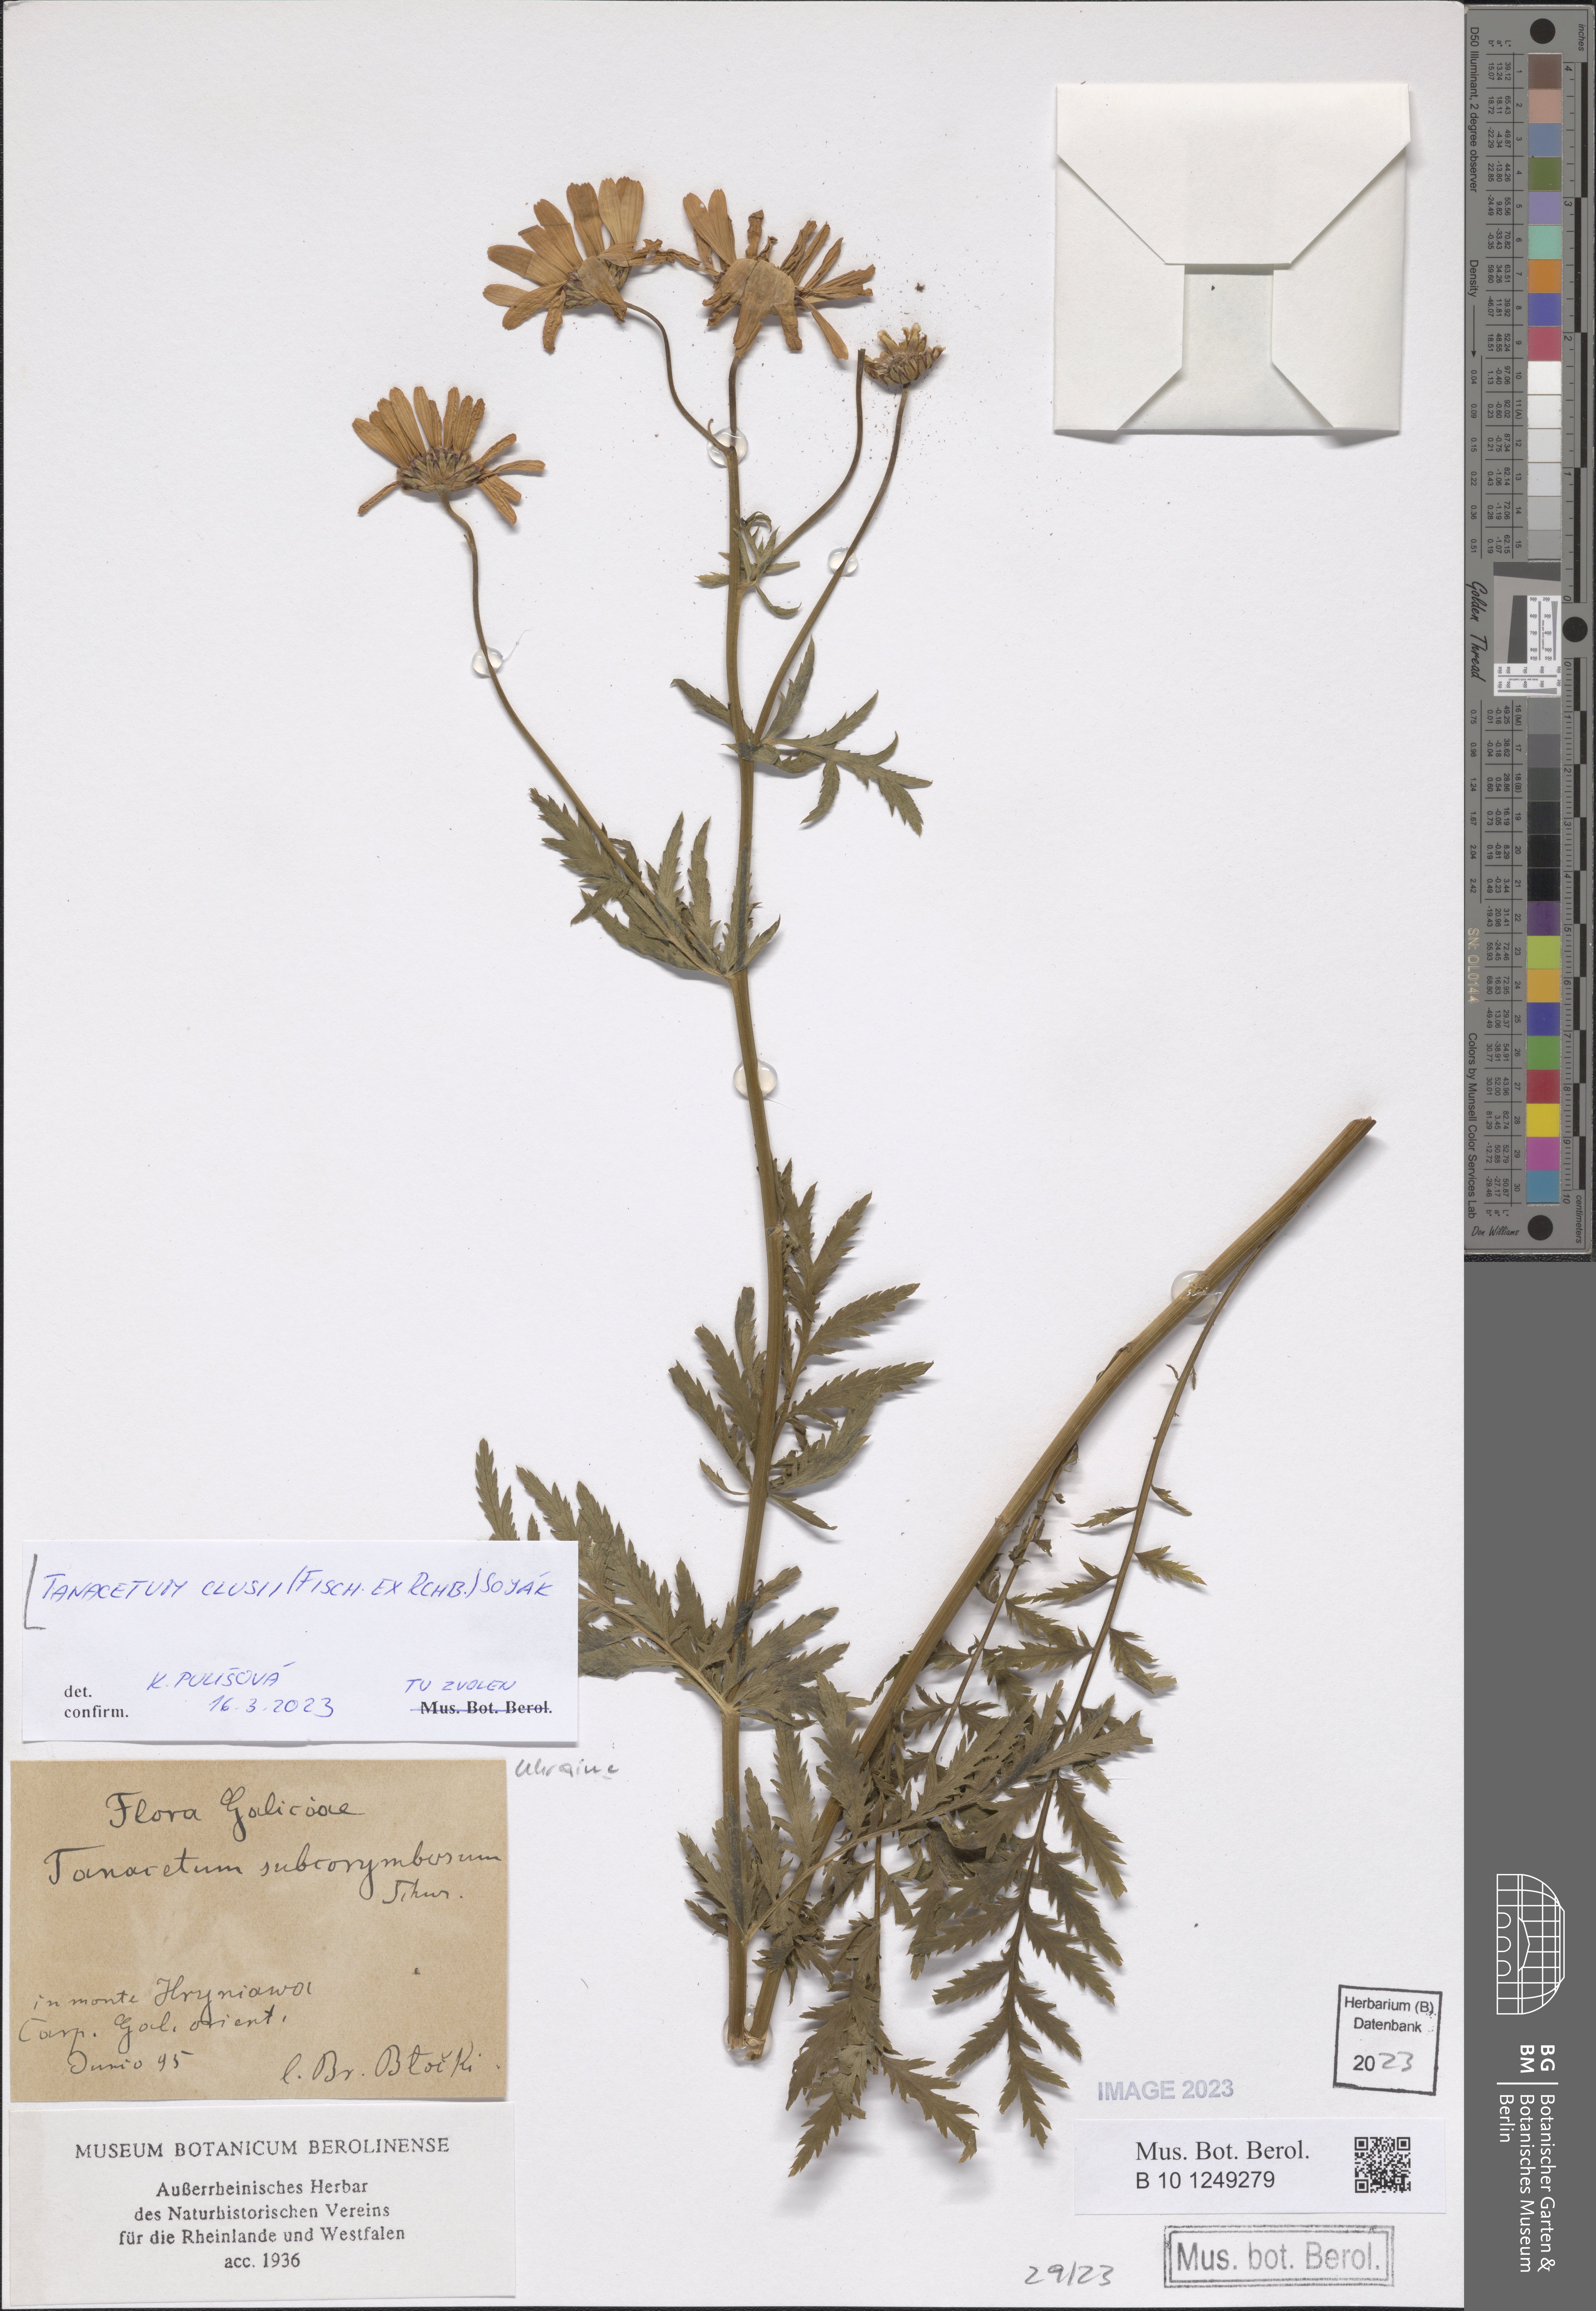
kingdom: Plantae
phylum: Tracheophyta
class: Magnoliopsida
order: Asterales
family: Asteraceae
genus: Tanacetum
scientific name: Tanacetum corymbosum
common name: Scentless feverfew
